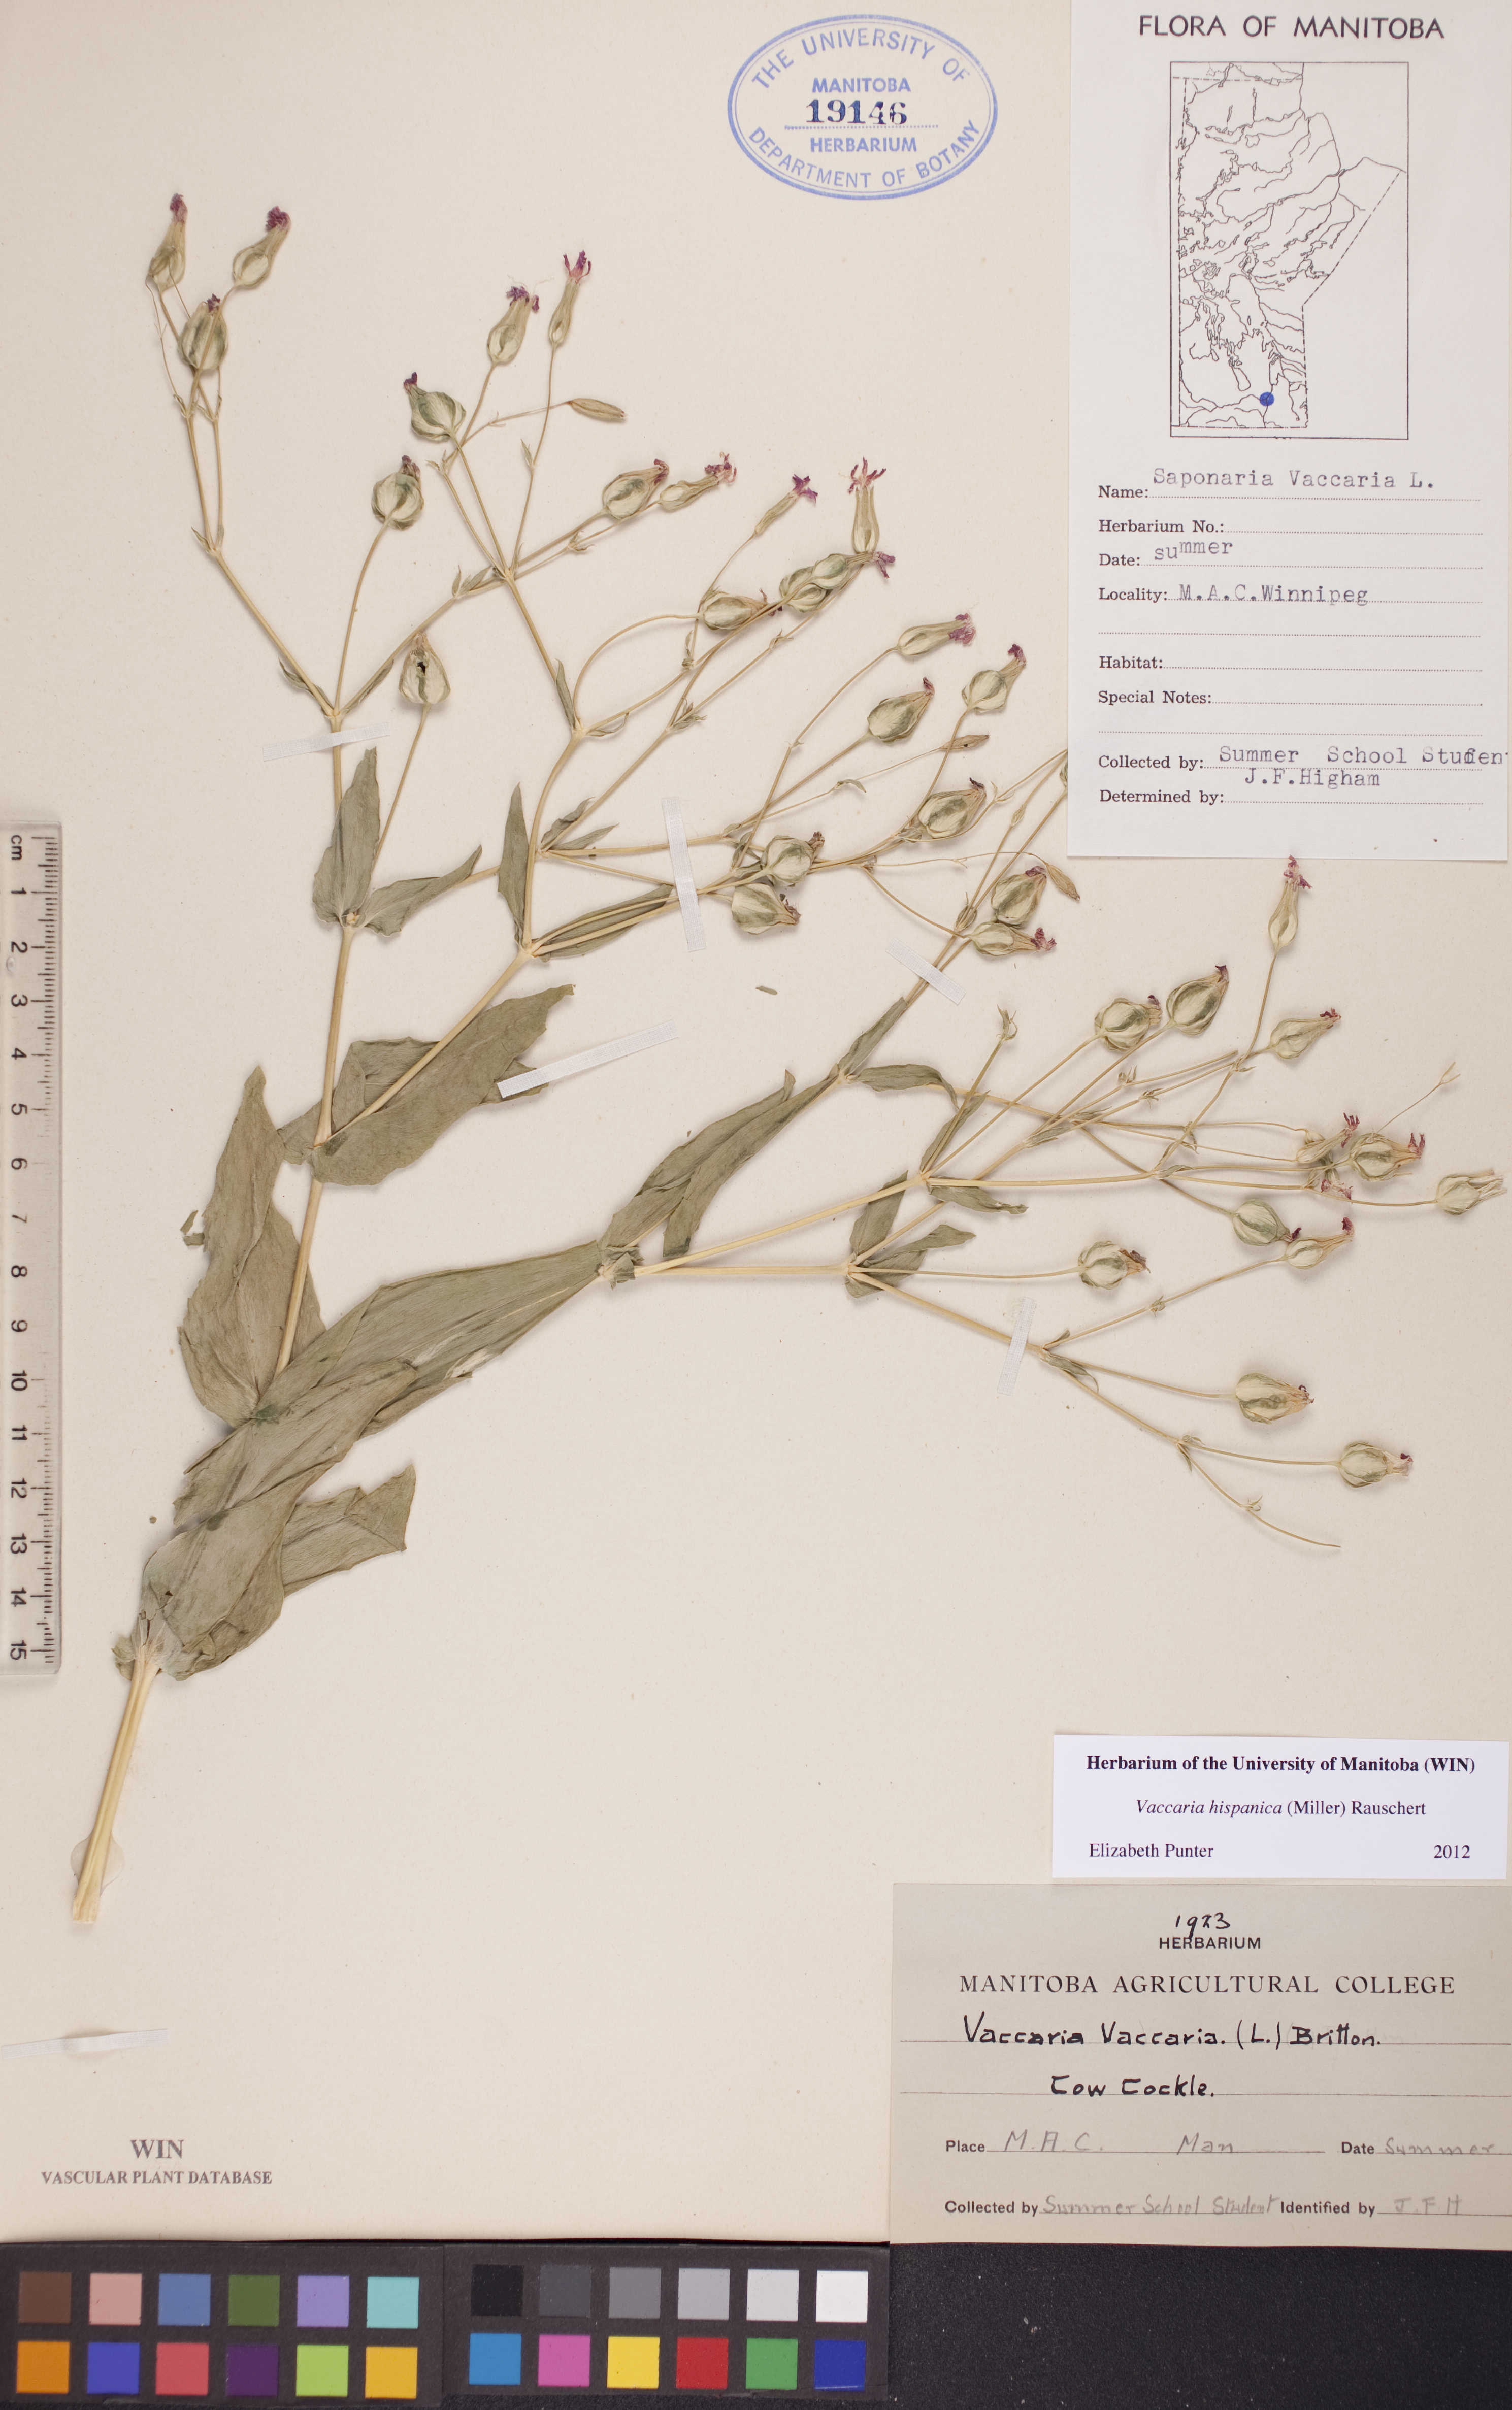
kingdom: Plantae
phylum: Tracheophyta
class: Magnoliopsida
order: Caryophyllales
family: Caryophyllaceae
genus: Gypsophila
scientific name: Gypsophila vaccaria
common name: Cow soapwort
